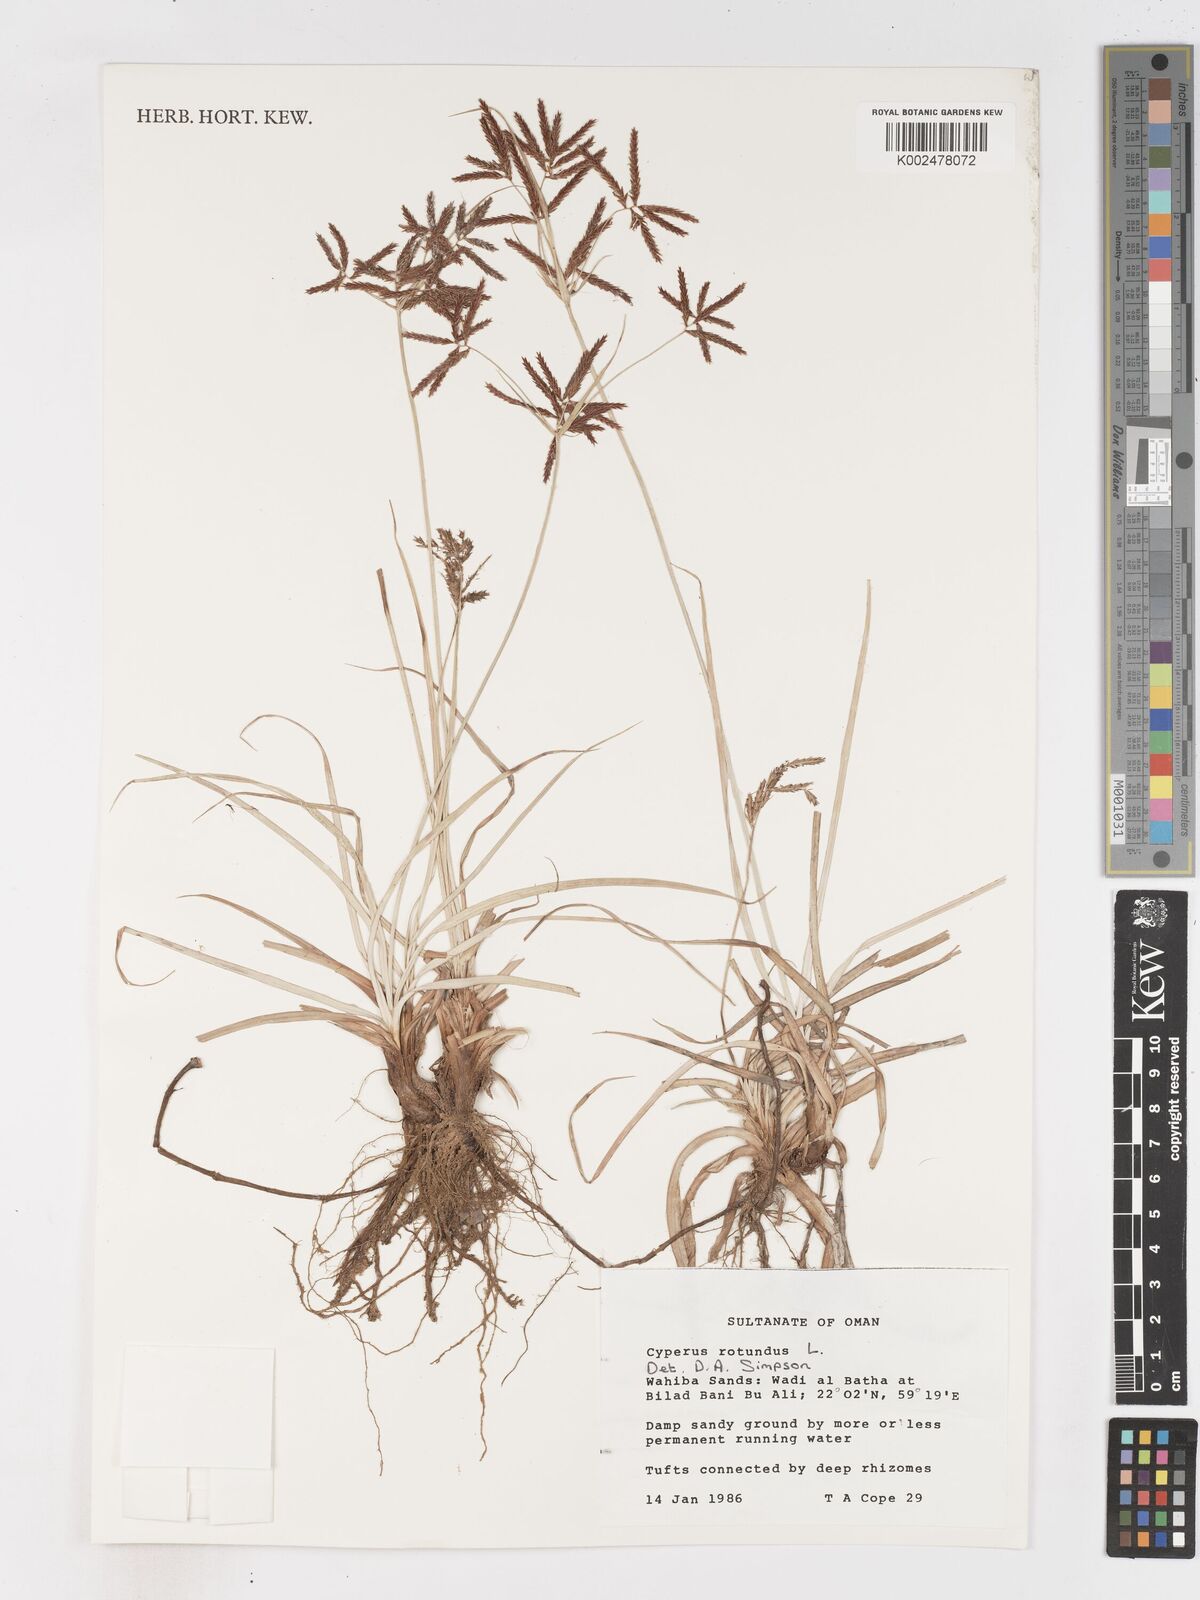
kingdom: Plantae
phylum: Tracheophyta
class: Liliopsida
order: Poales
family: Cyperaceae
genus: Cyperus
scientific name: Cyperus rotundus
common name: Nutgrass
